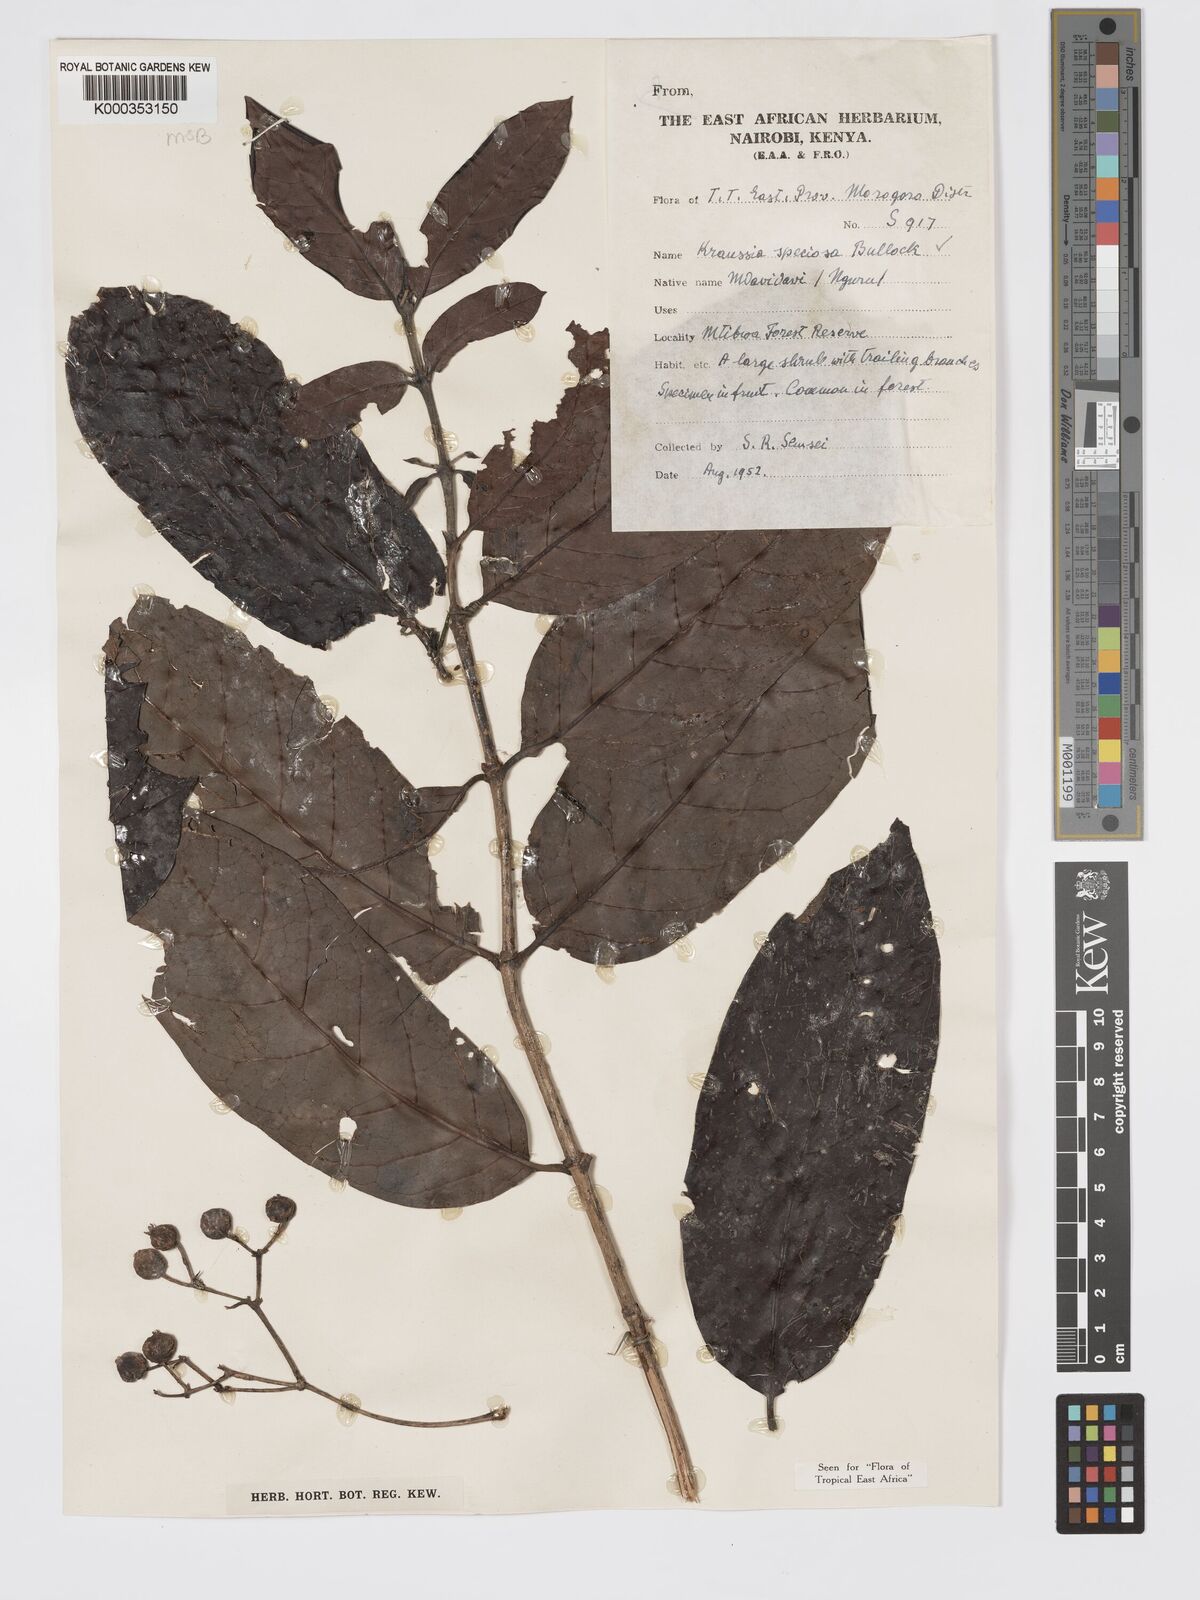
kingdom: Plantae
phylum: Tracheophyta
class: Magnoliopsida
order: Gentianales
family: Rubiaceae
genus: Kraussia
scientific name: Kraussia speciosa
